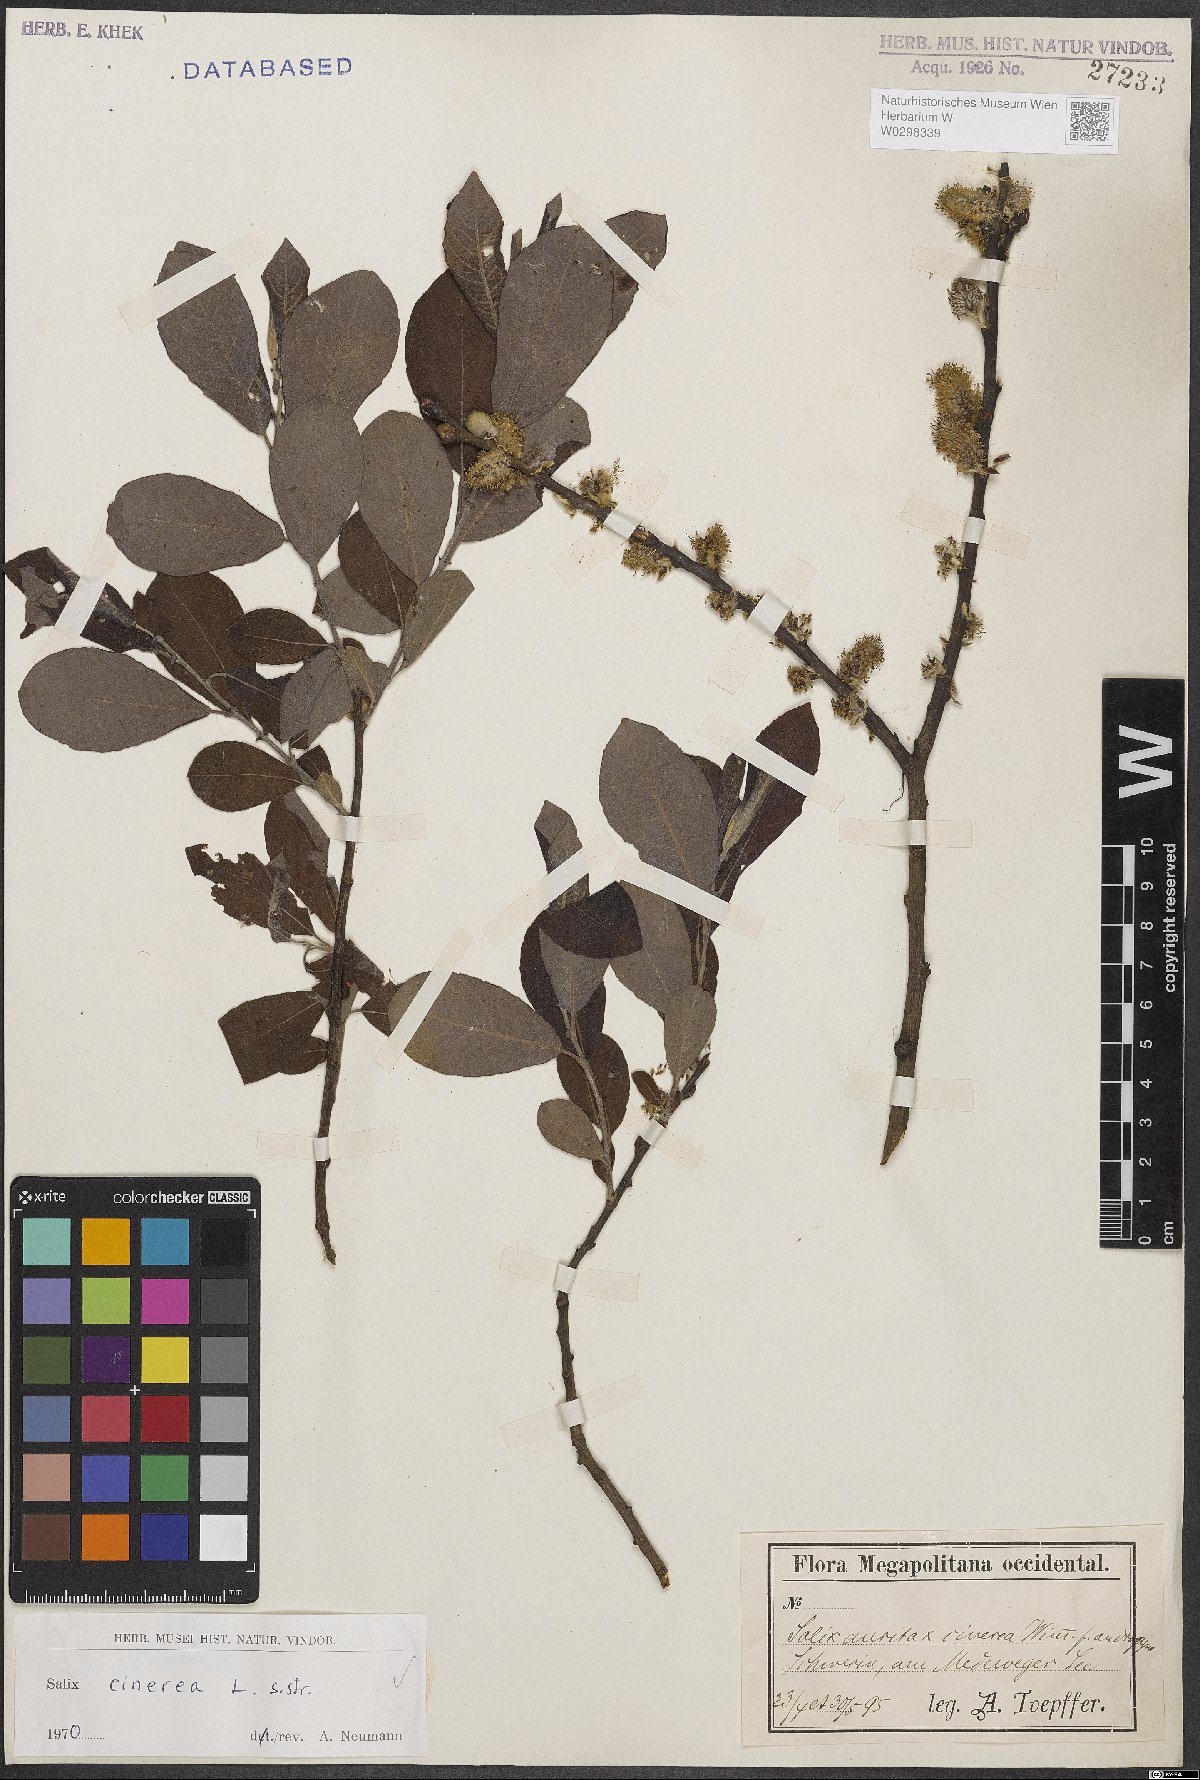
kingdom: Plantae
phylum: Tracheophyta
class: Magnoliopsida
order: Malpighiales
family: Salicaceae
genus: Salix
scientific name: Salix cinerea
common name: Common sallow
